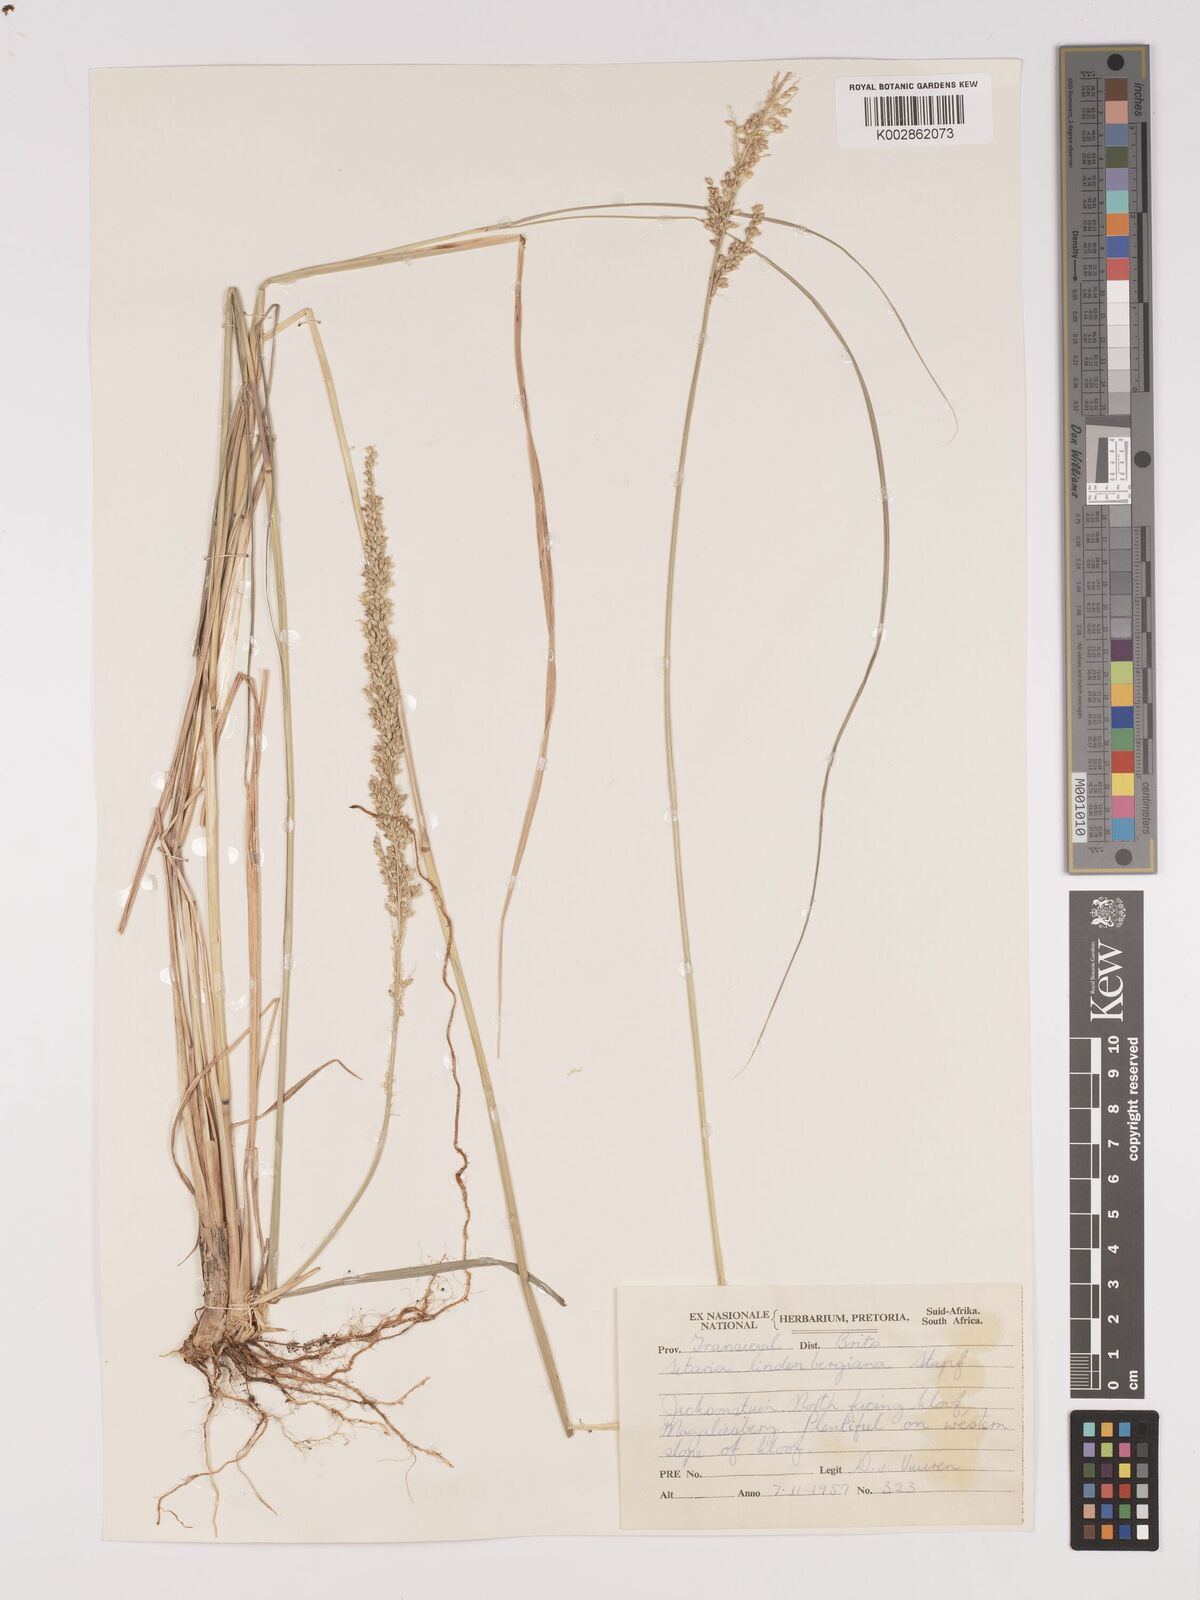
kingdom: Plantae
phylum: Tracheophyta
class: Liliopsida
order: Poales
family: Poaceae
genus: Setaria
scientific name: Setaria lindenbergiana
